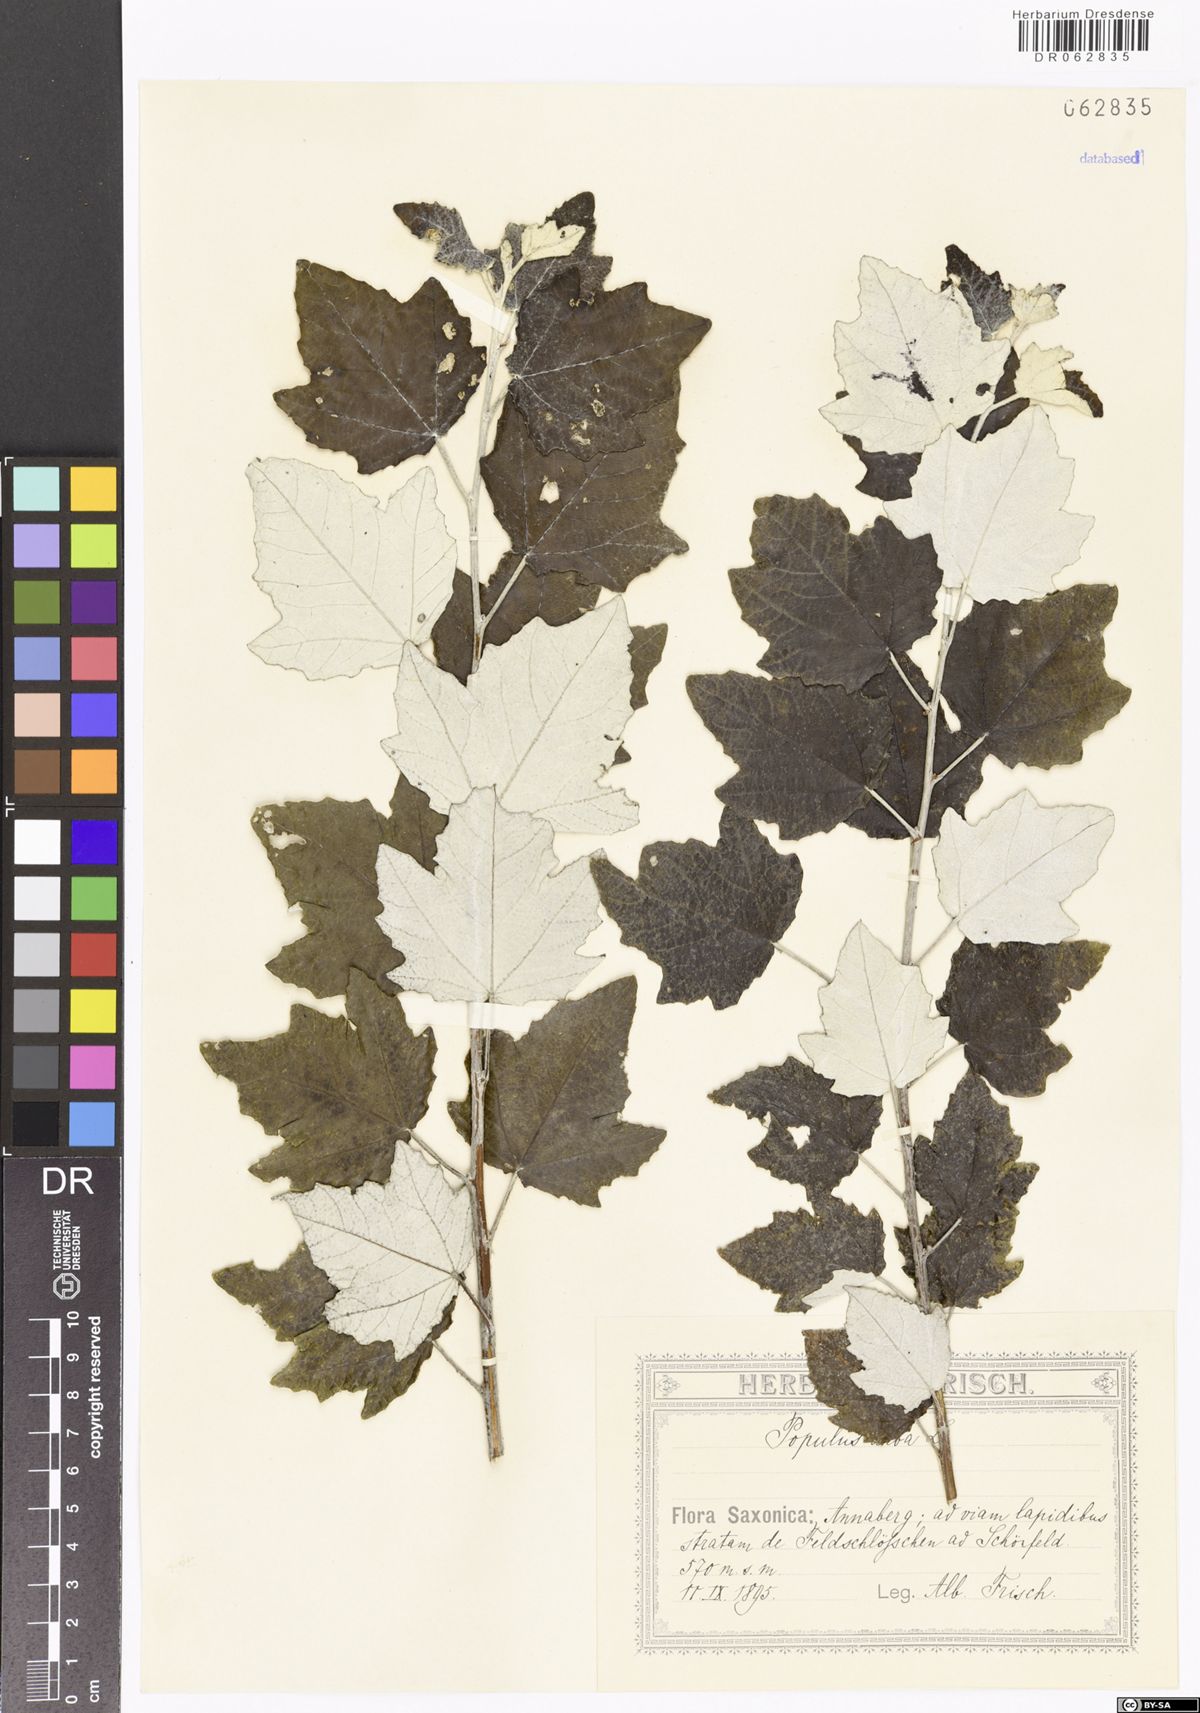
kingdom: Plantae
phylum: Tracheophyta
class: Magnoliopsida
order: Malpighiales
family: Salicaceae
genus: Populus
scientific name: Populus alba
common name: White poplar
